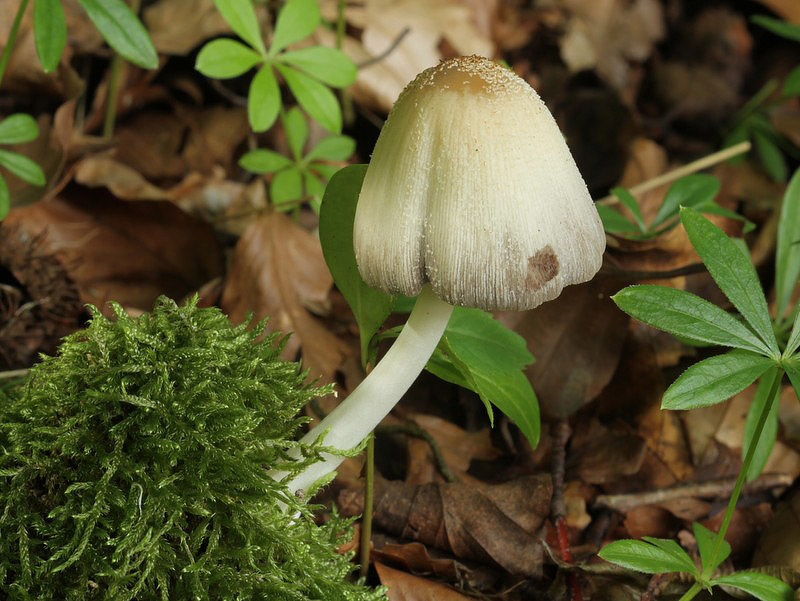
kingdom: Fungi
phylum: Basidiomycota
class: Agaricomycetes
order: Agaricales
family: Psathyrellaceae
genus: Coprinellus
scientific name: Coprinellus domesticus
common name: hus-blækhat
